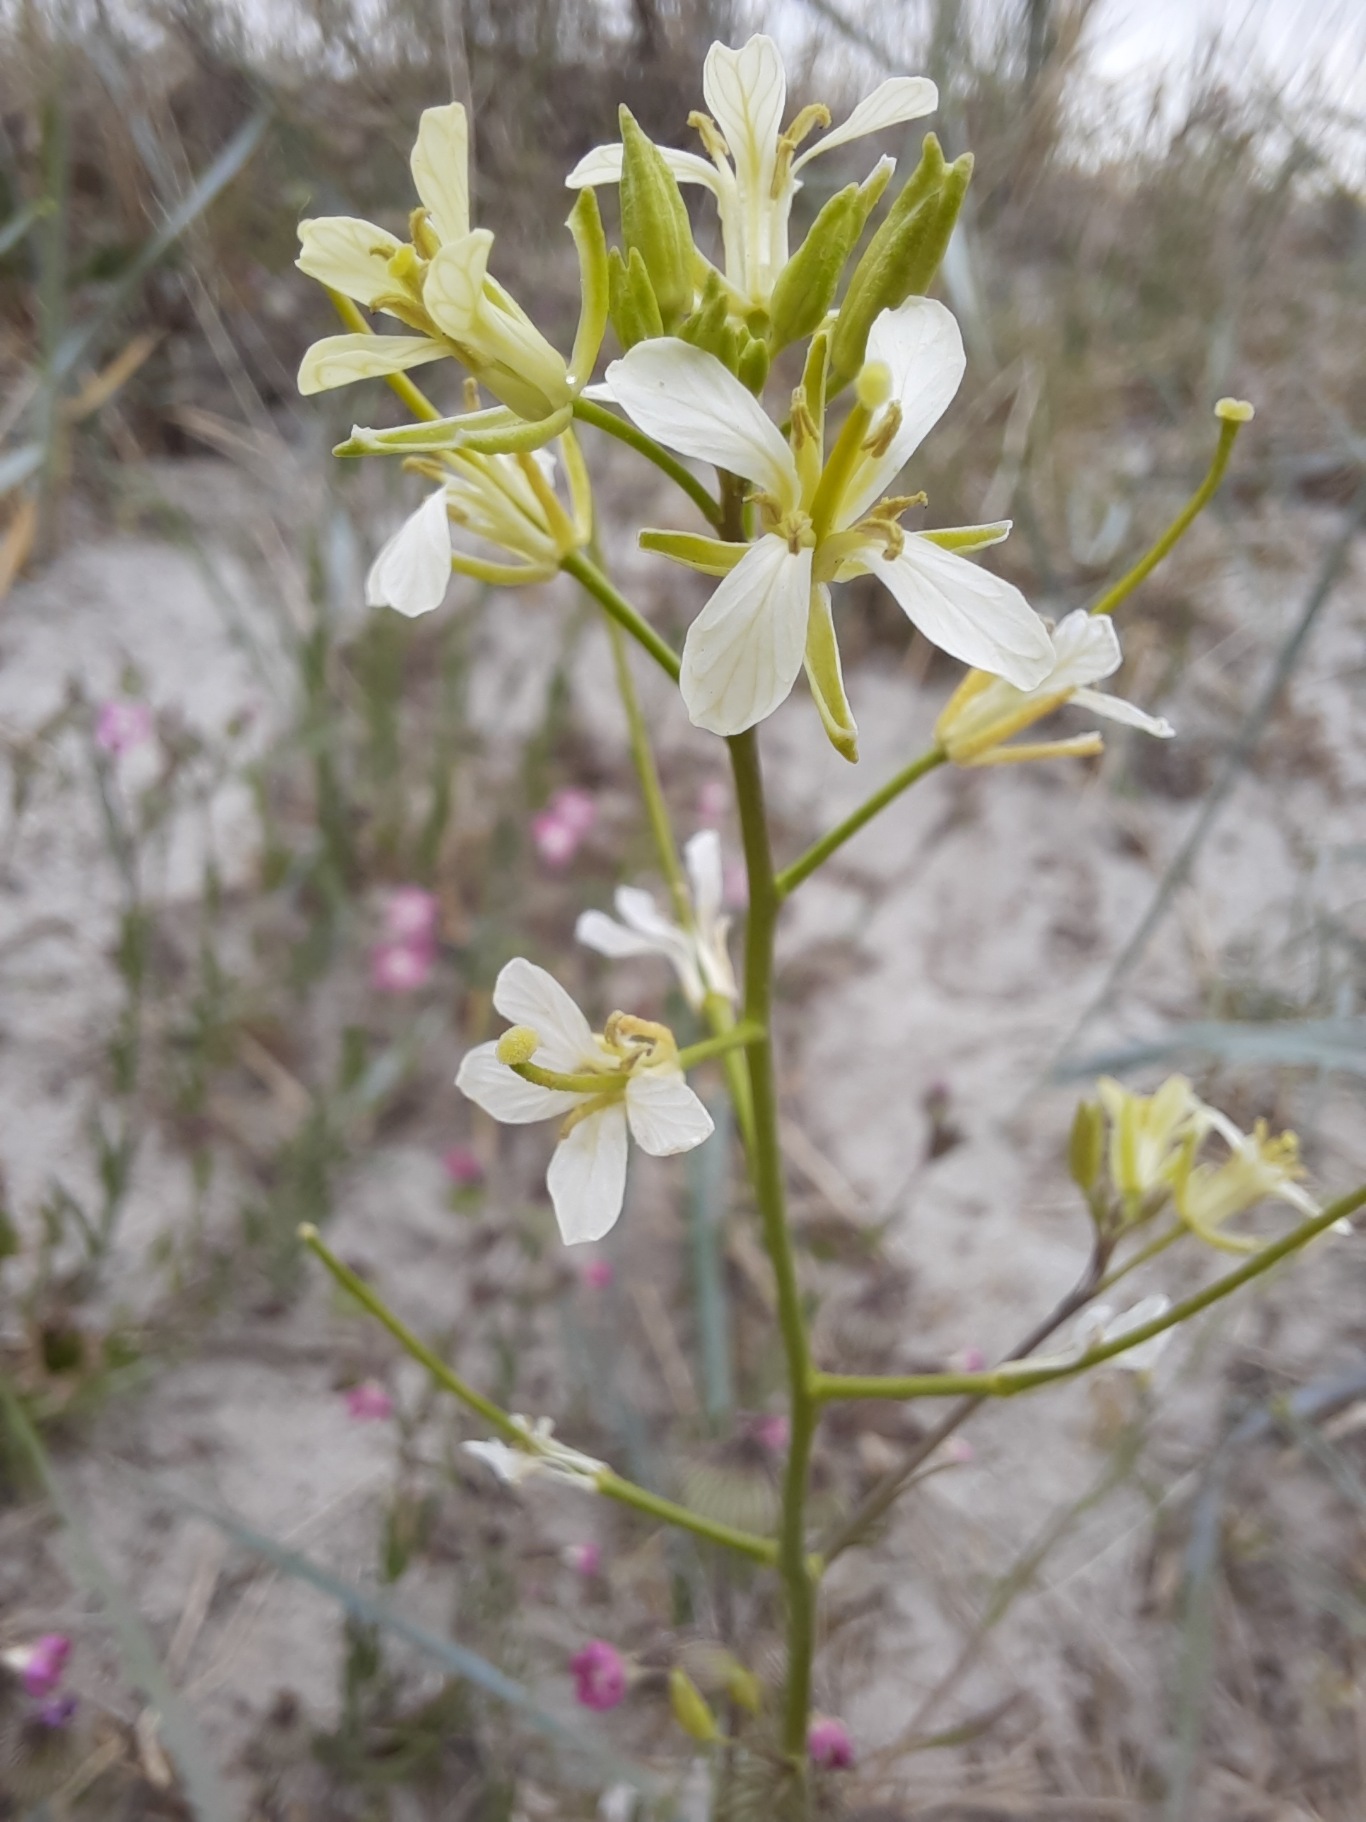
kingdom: Plantae
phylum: Tracheophyta
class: Magnoliopsida
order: Brassicales
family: Brassicaceae
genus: Sisymbrium
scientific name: Sisymbrium altissimum
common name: Ungarsk vejsennep
